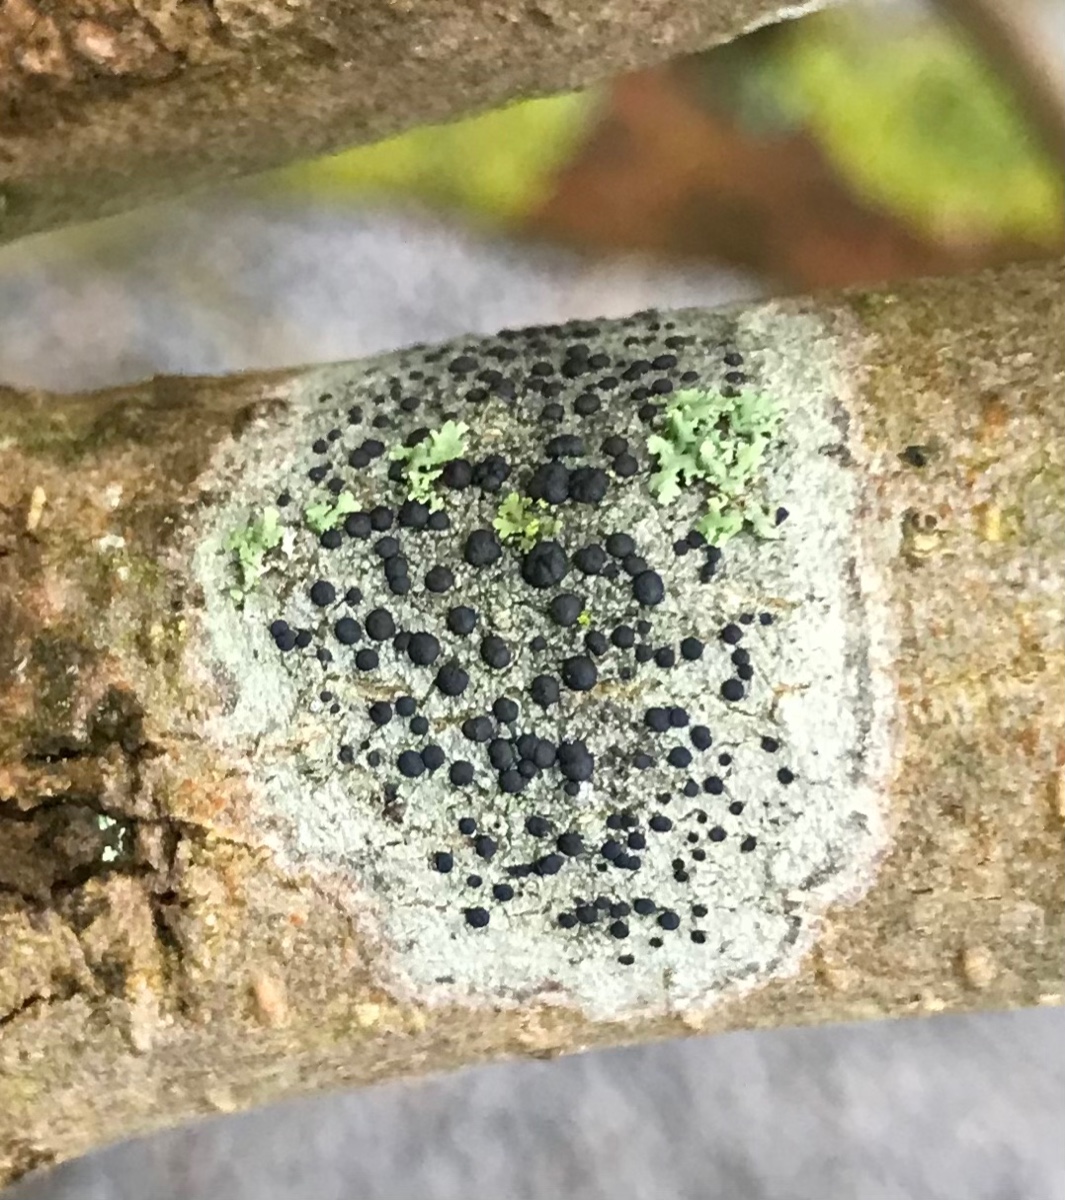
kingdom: Fungi
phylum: Ascomycota
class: Lecanoromycetes
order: Lecanorales
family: Lecanoraceae
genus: Lecidella
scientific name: Lecidella elaeochroma
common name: grågrøn skivelav
